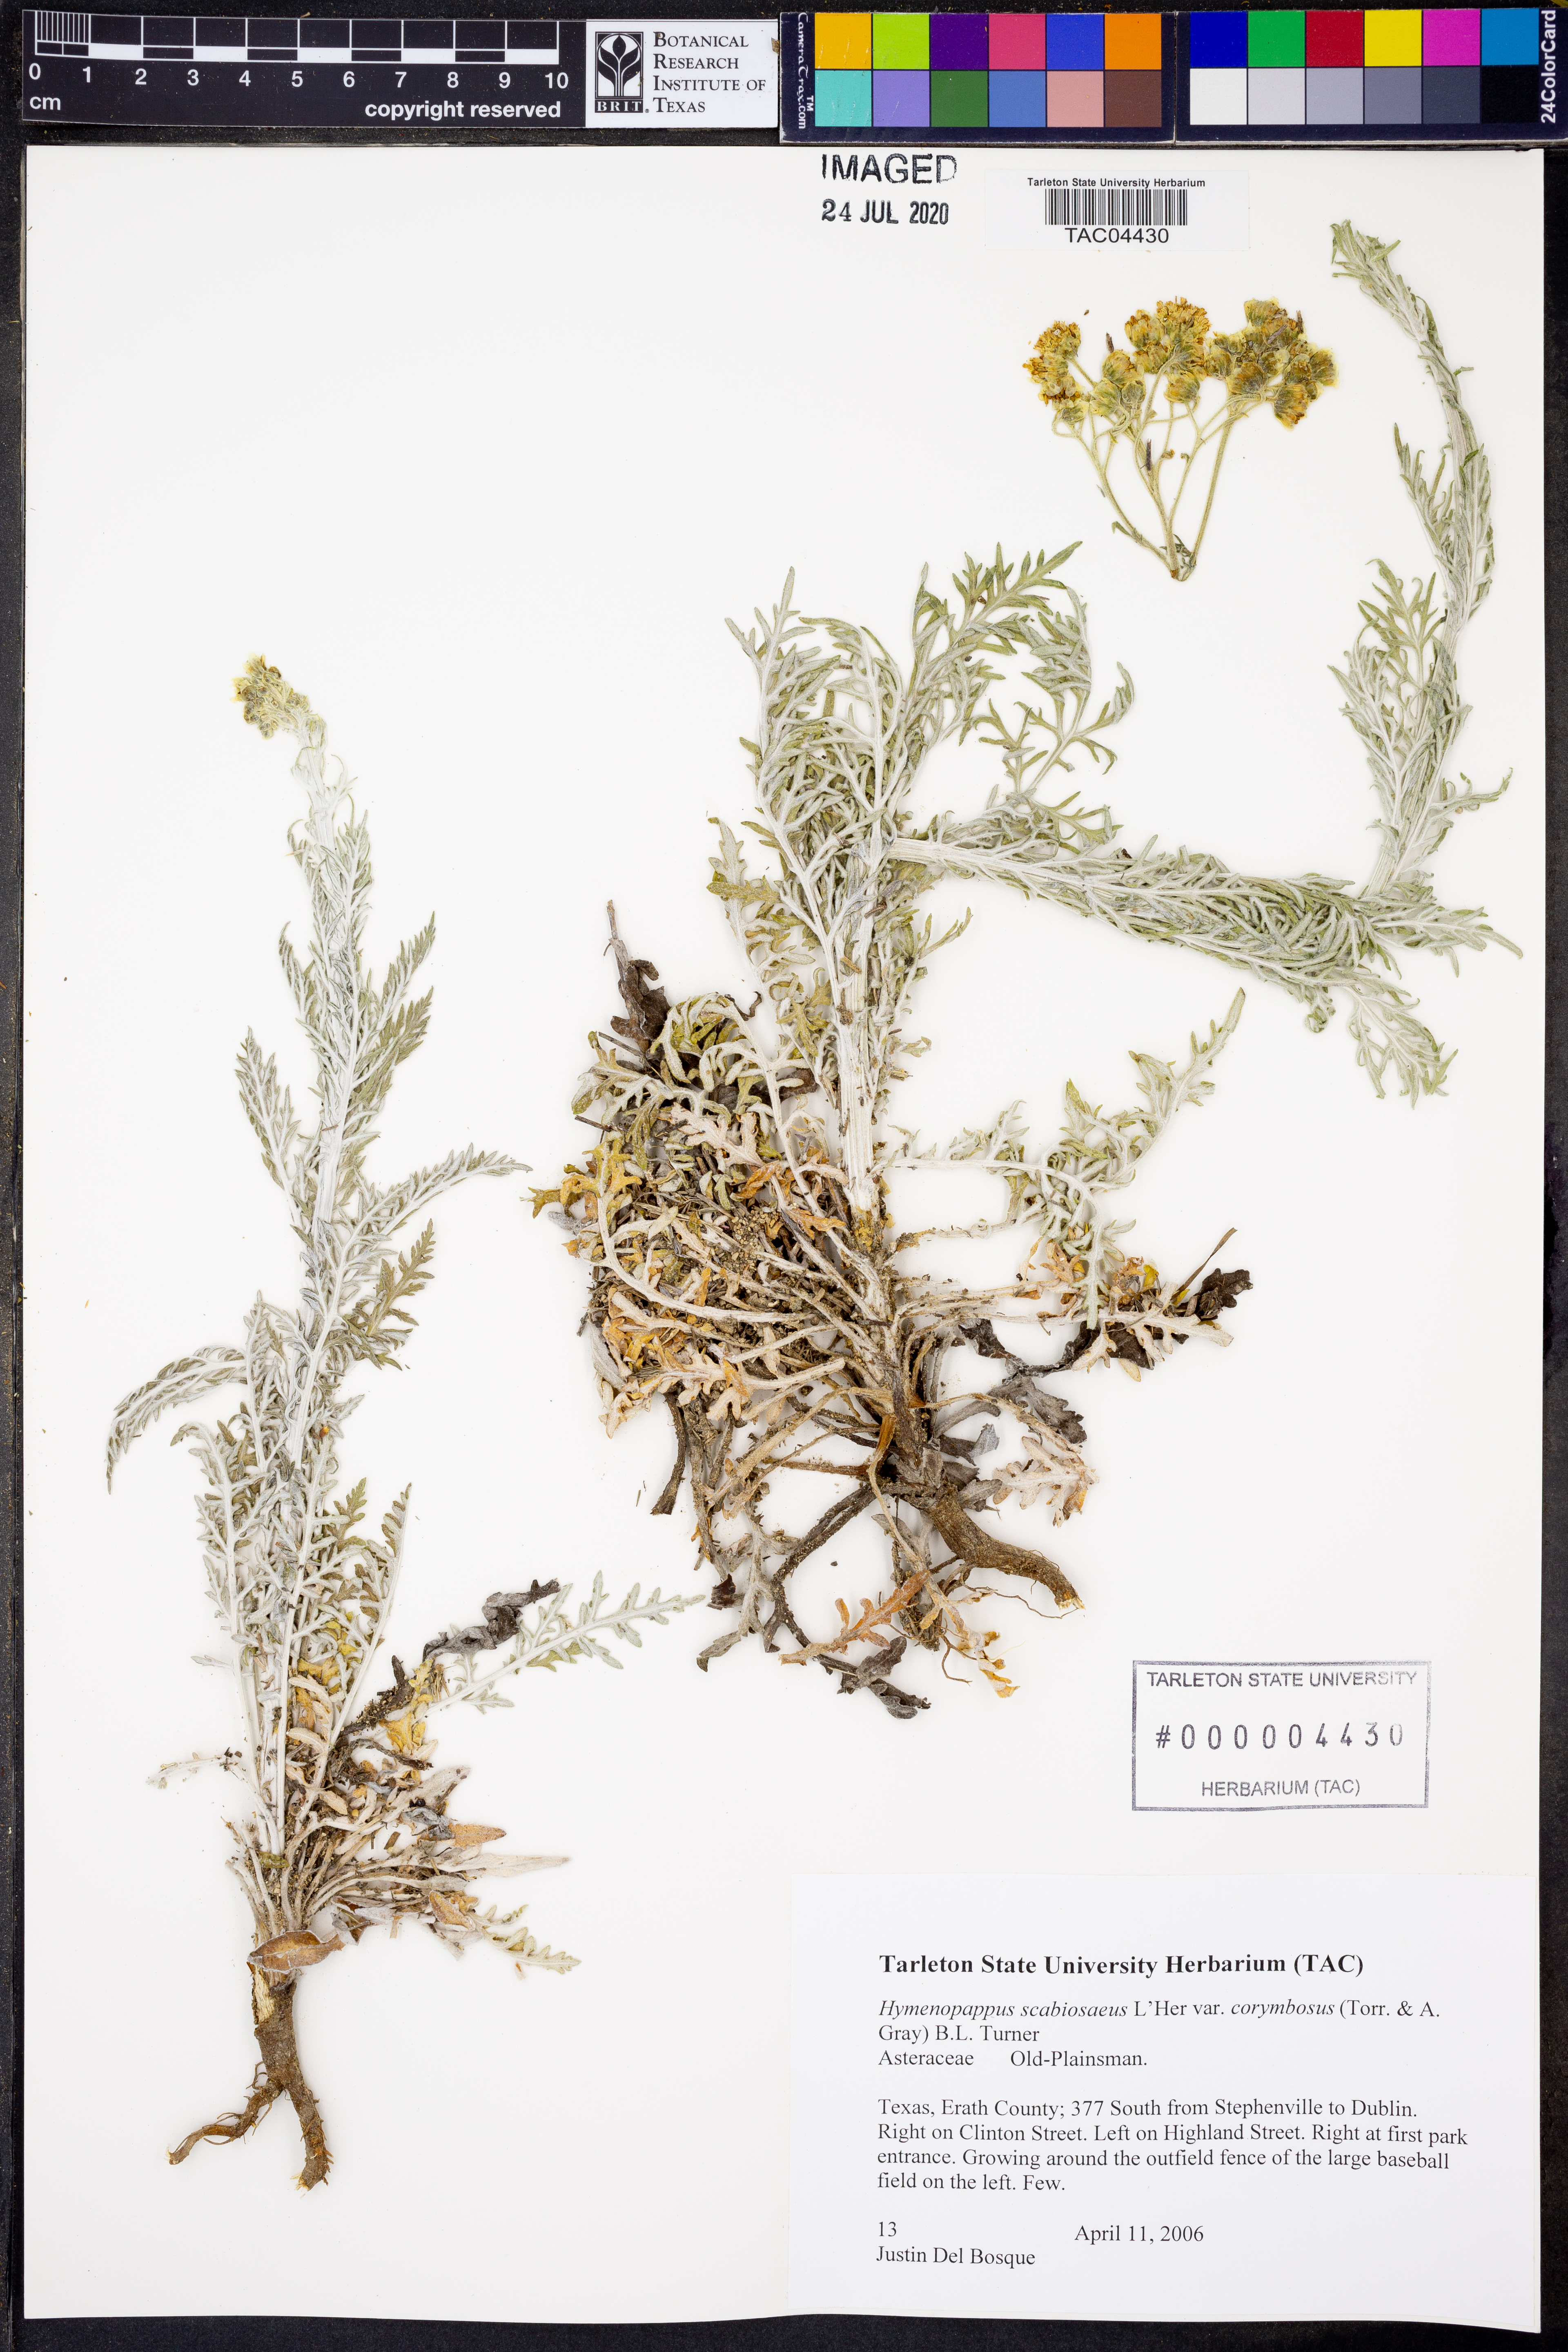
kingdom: Plantae
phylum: Tracheophyta
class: Magnoliopsida
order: Asterales
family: Asteraceae
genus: Hymenopappus
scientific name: Hymenopappus scabiosaeus
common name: Carolina woollywhite
